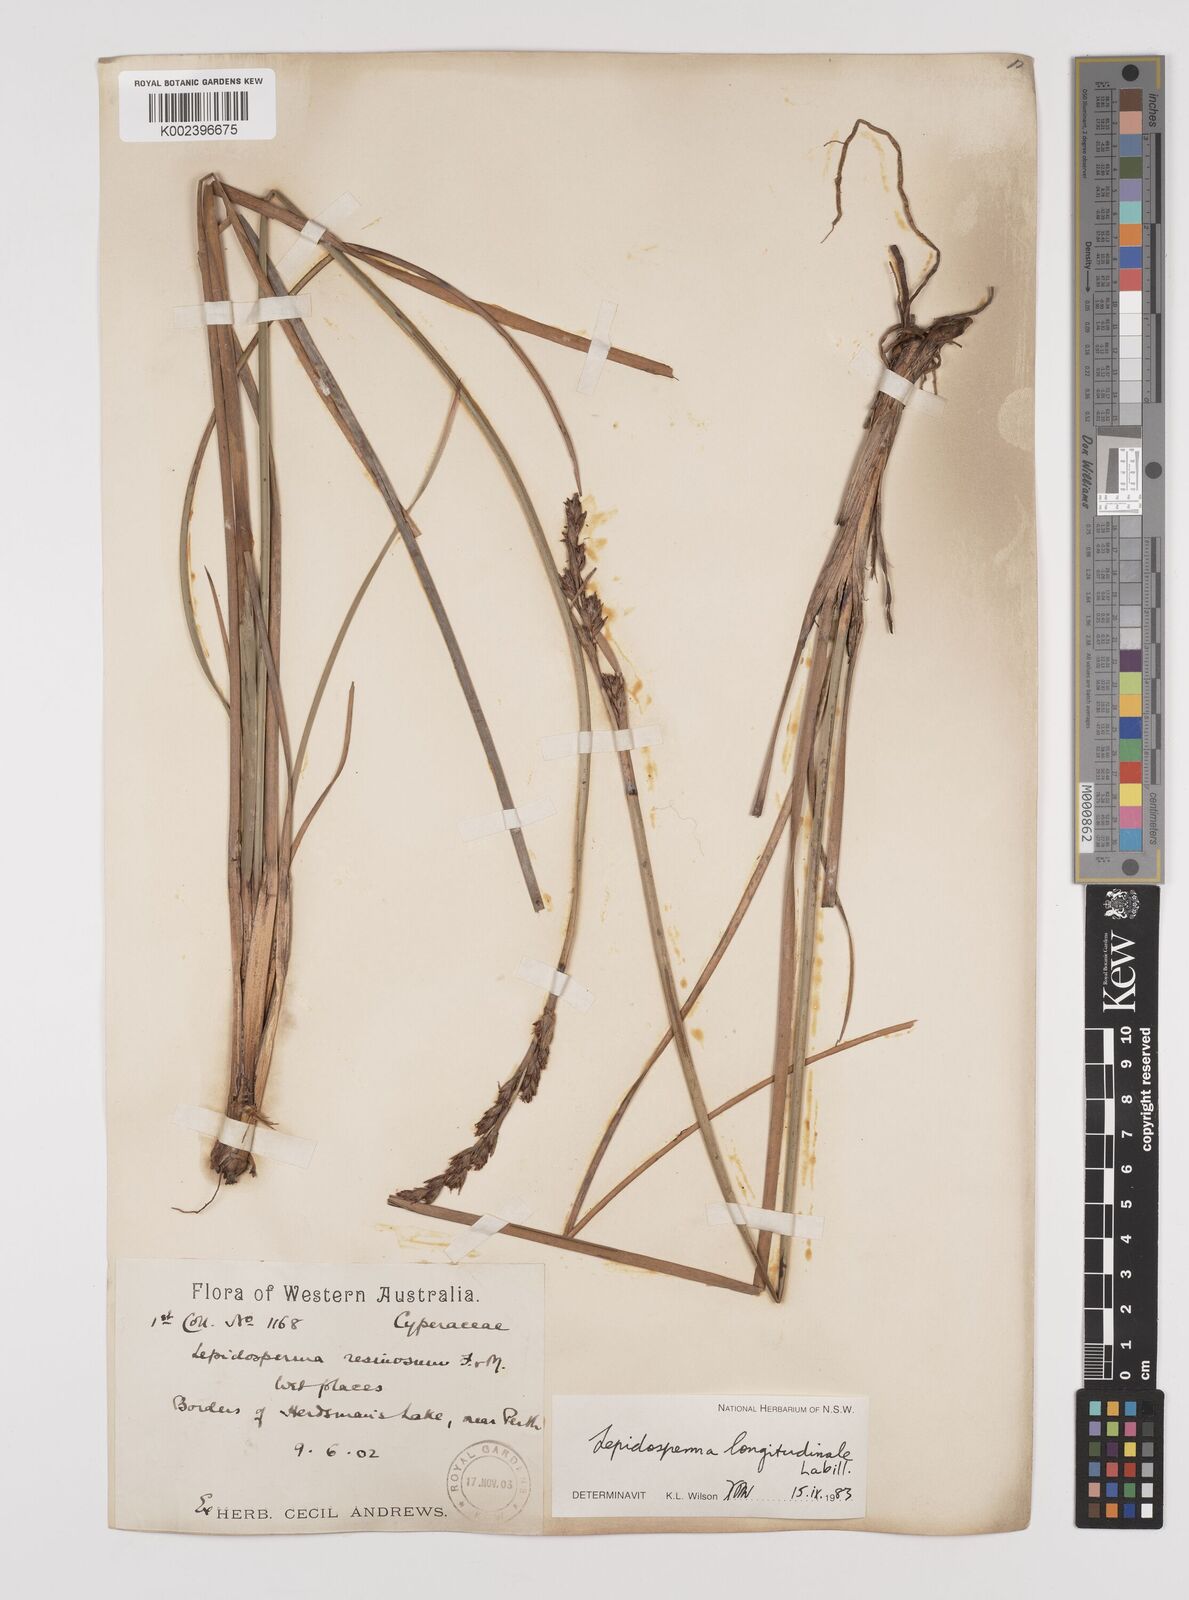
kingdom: Plantae
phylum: Tracheophyta
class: Liliopsida
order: Poales
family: Cyperaceae
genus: Lepidosperma
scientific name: Lepidosperma longitudinale
